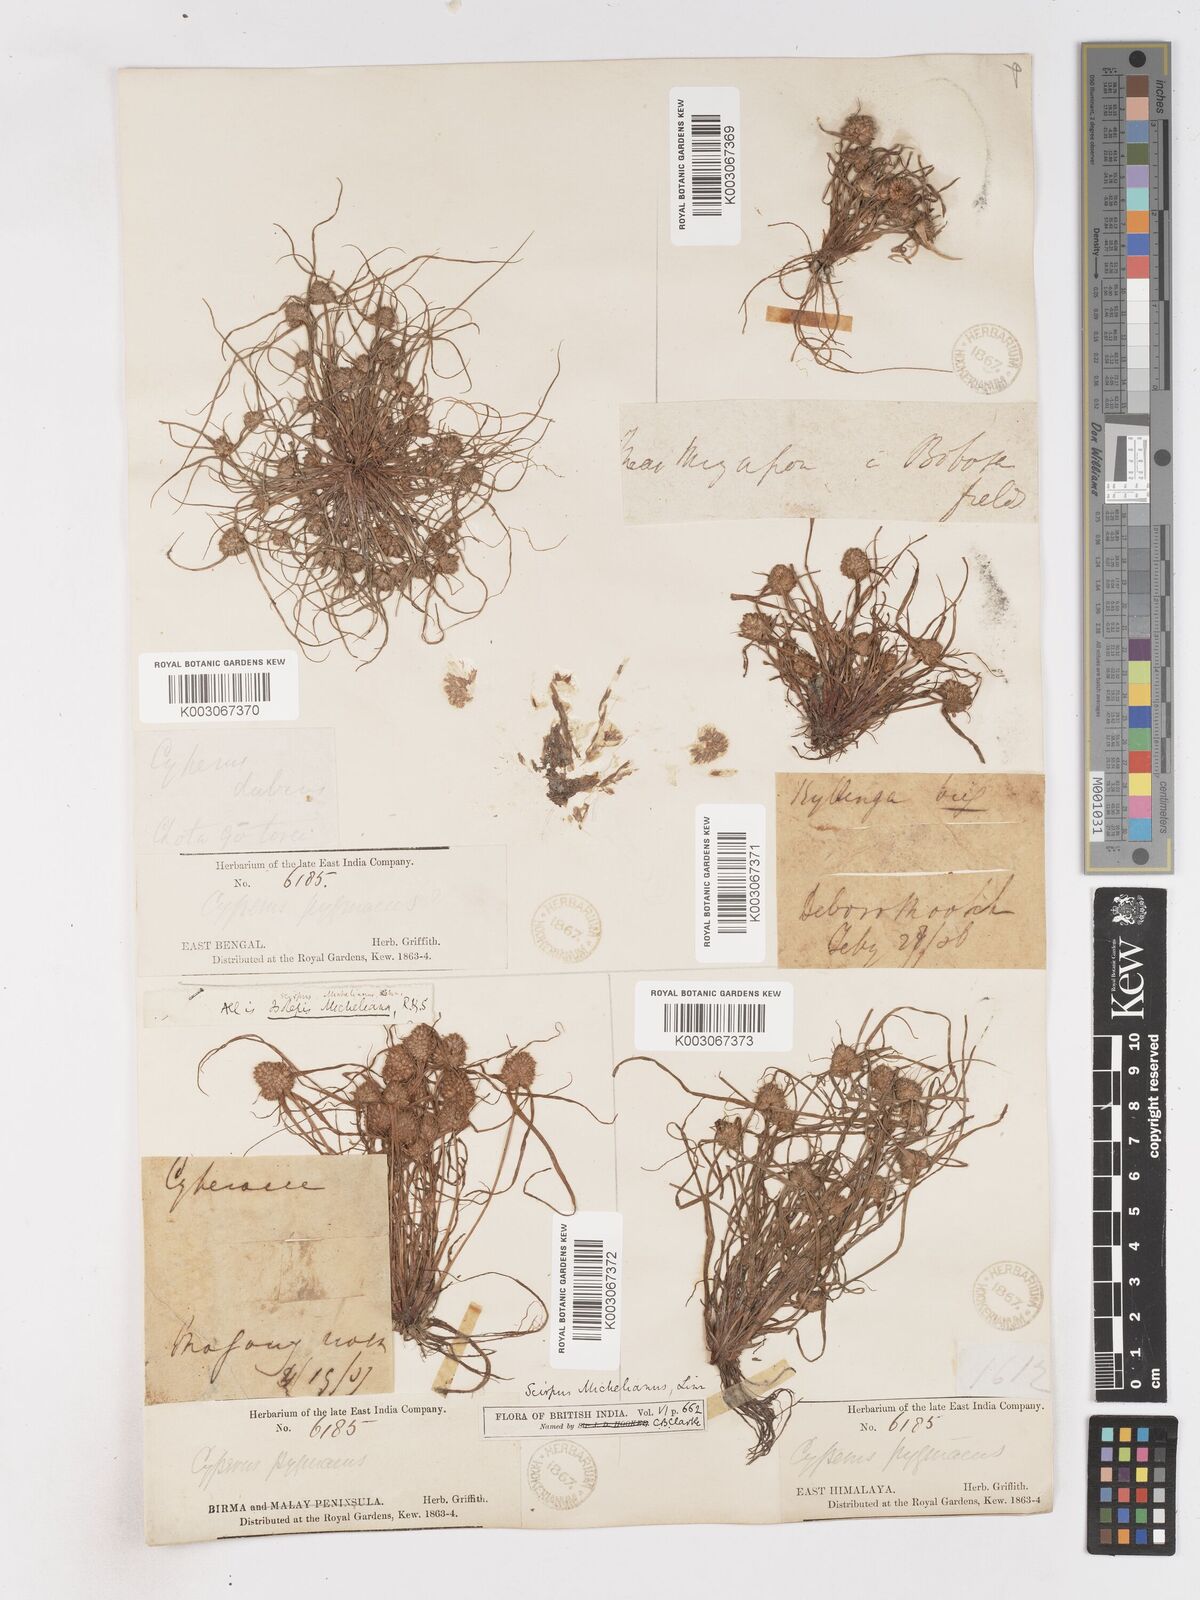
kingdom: Plantae
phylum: Tracheophyta
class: Liliopsida
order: Poales
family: Cyperaceae
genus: Cyperus
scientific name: Cyperus michelianus
